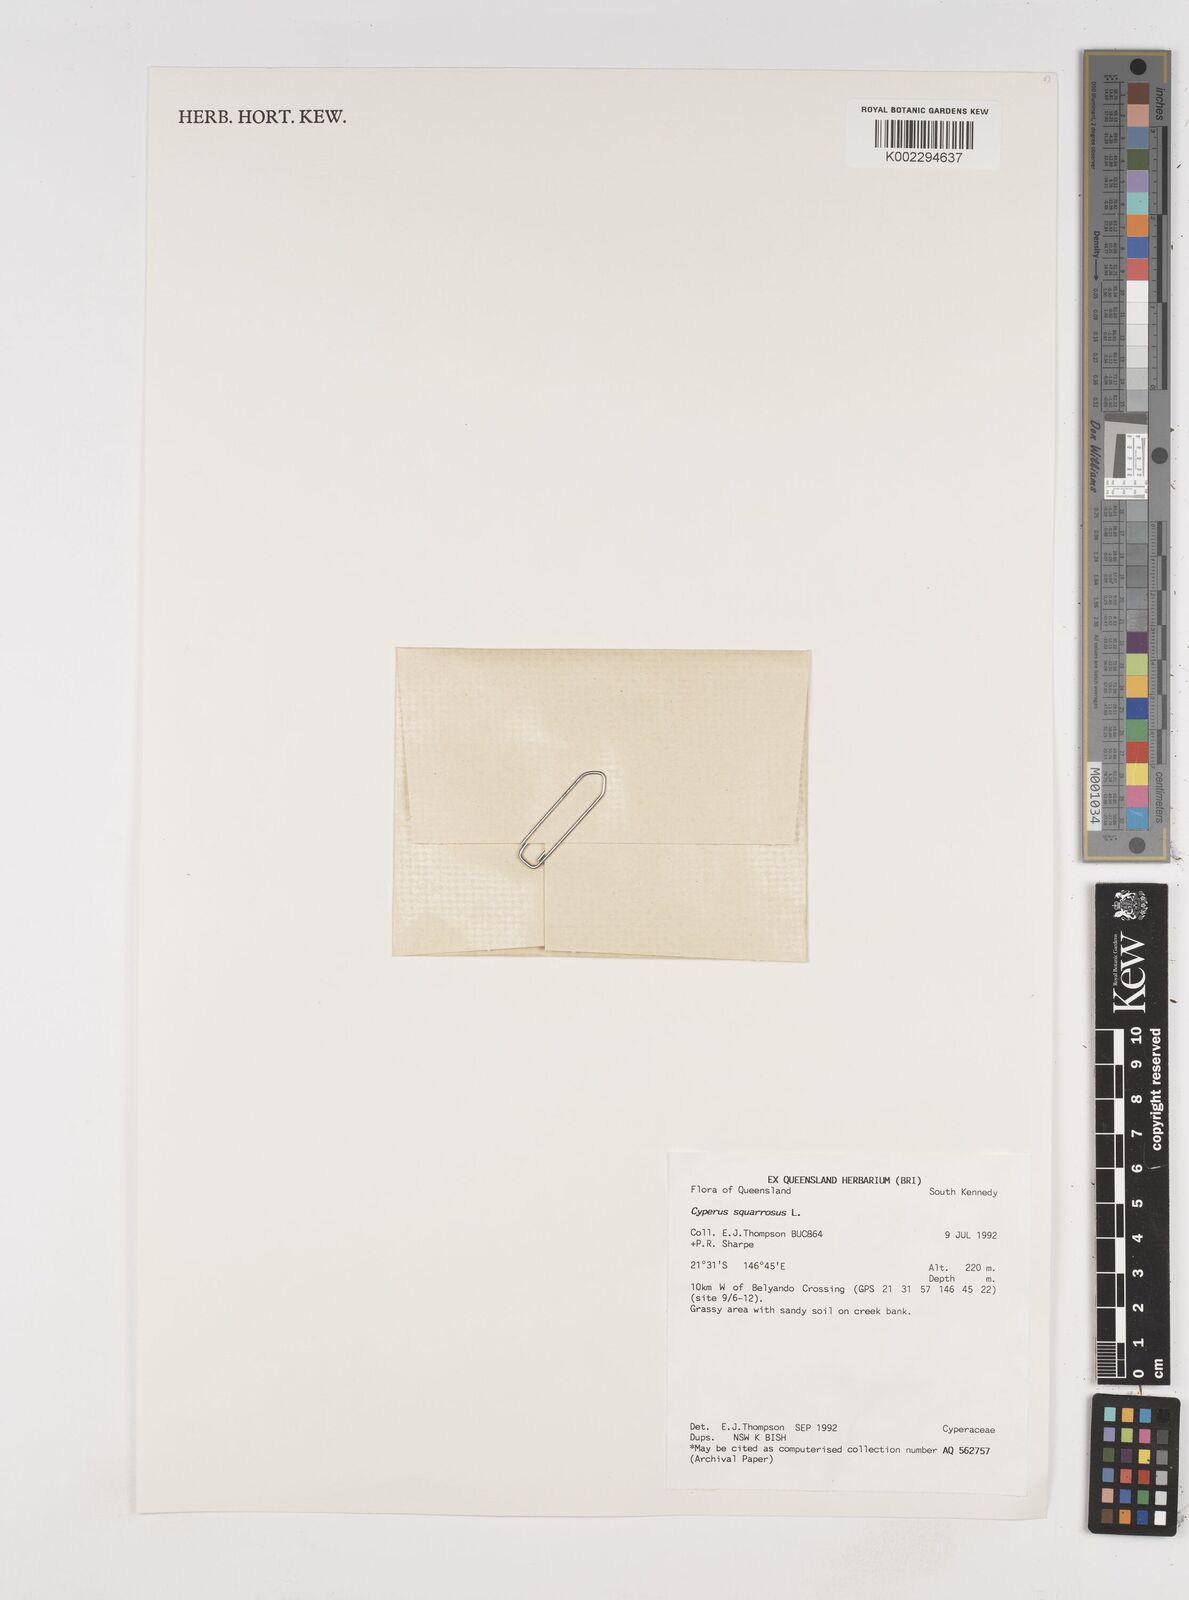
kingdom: Plantae
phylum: Tracheophyta
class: Liliopsida
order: Poales
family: Cyperaceae
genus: Cyperus
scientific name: Cyperus squarrosus
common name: Awned cyperus
